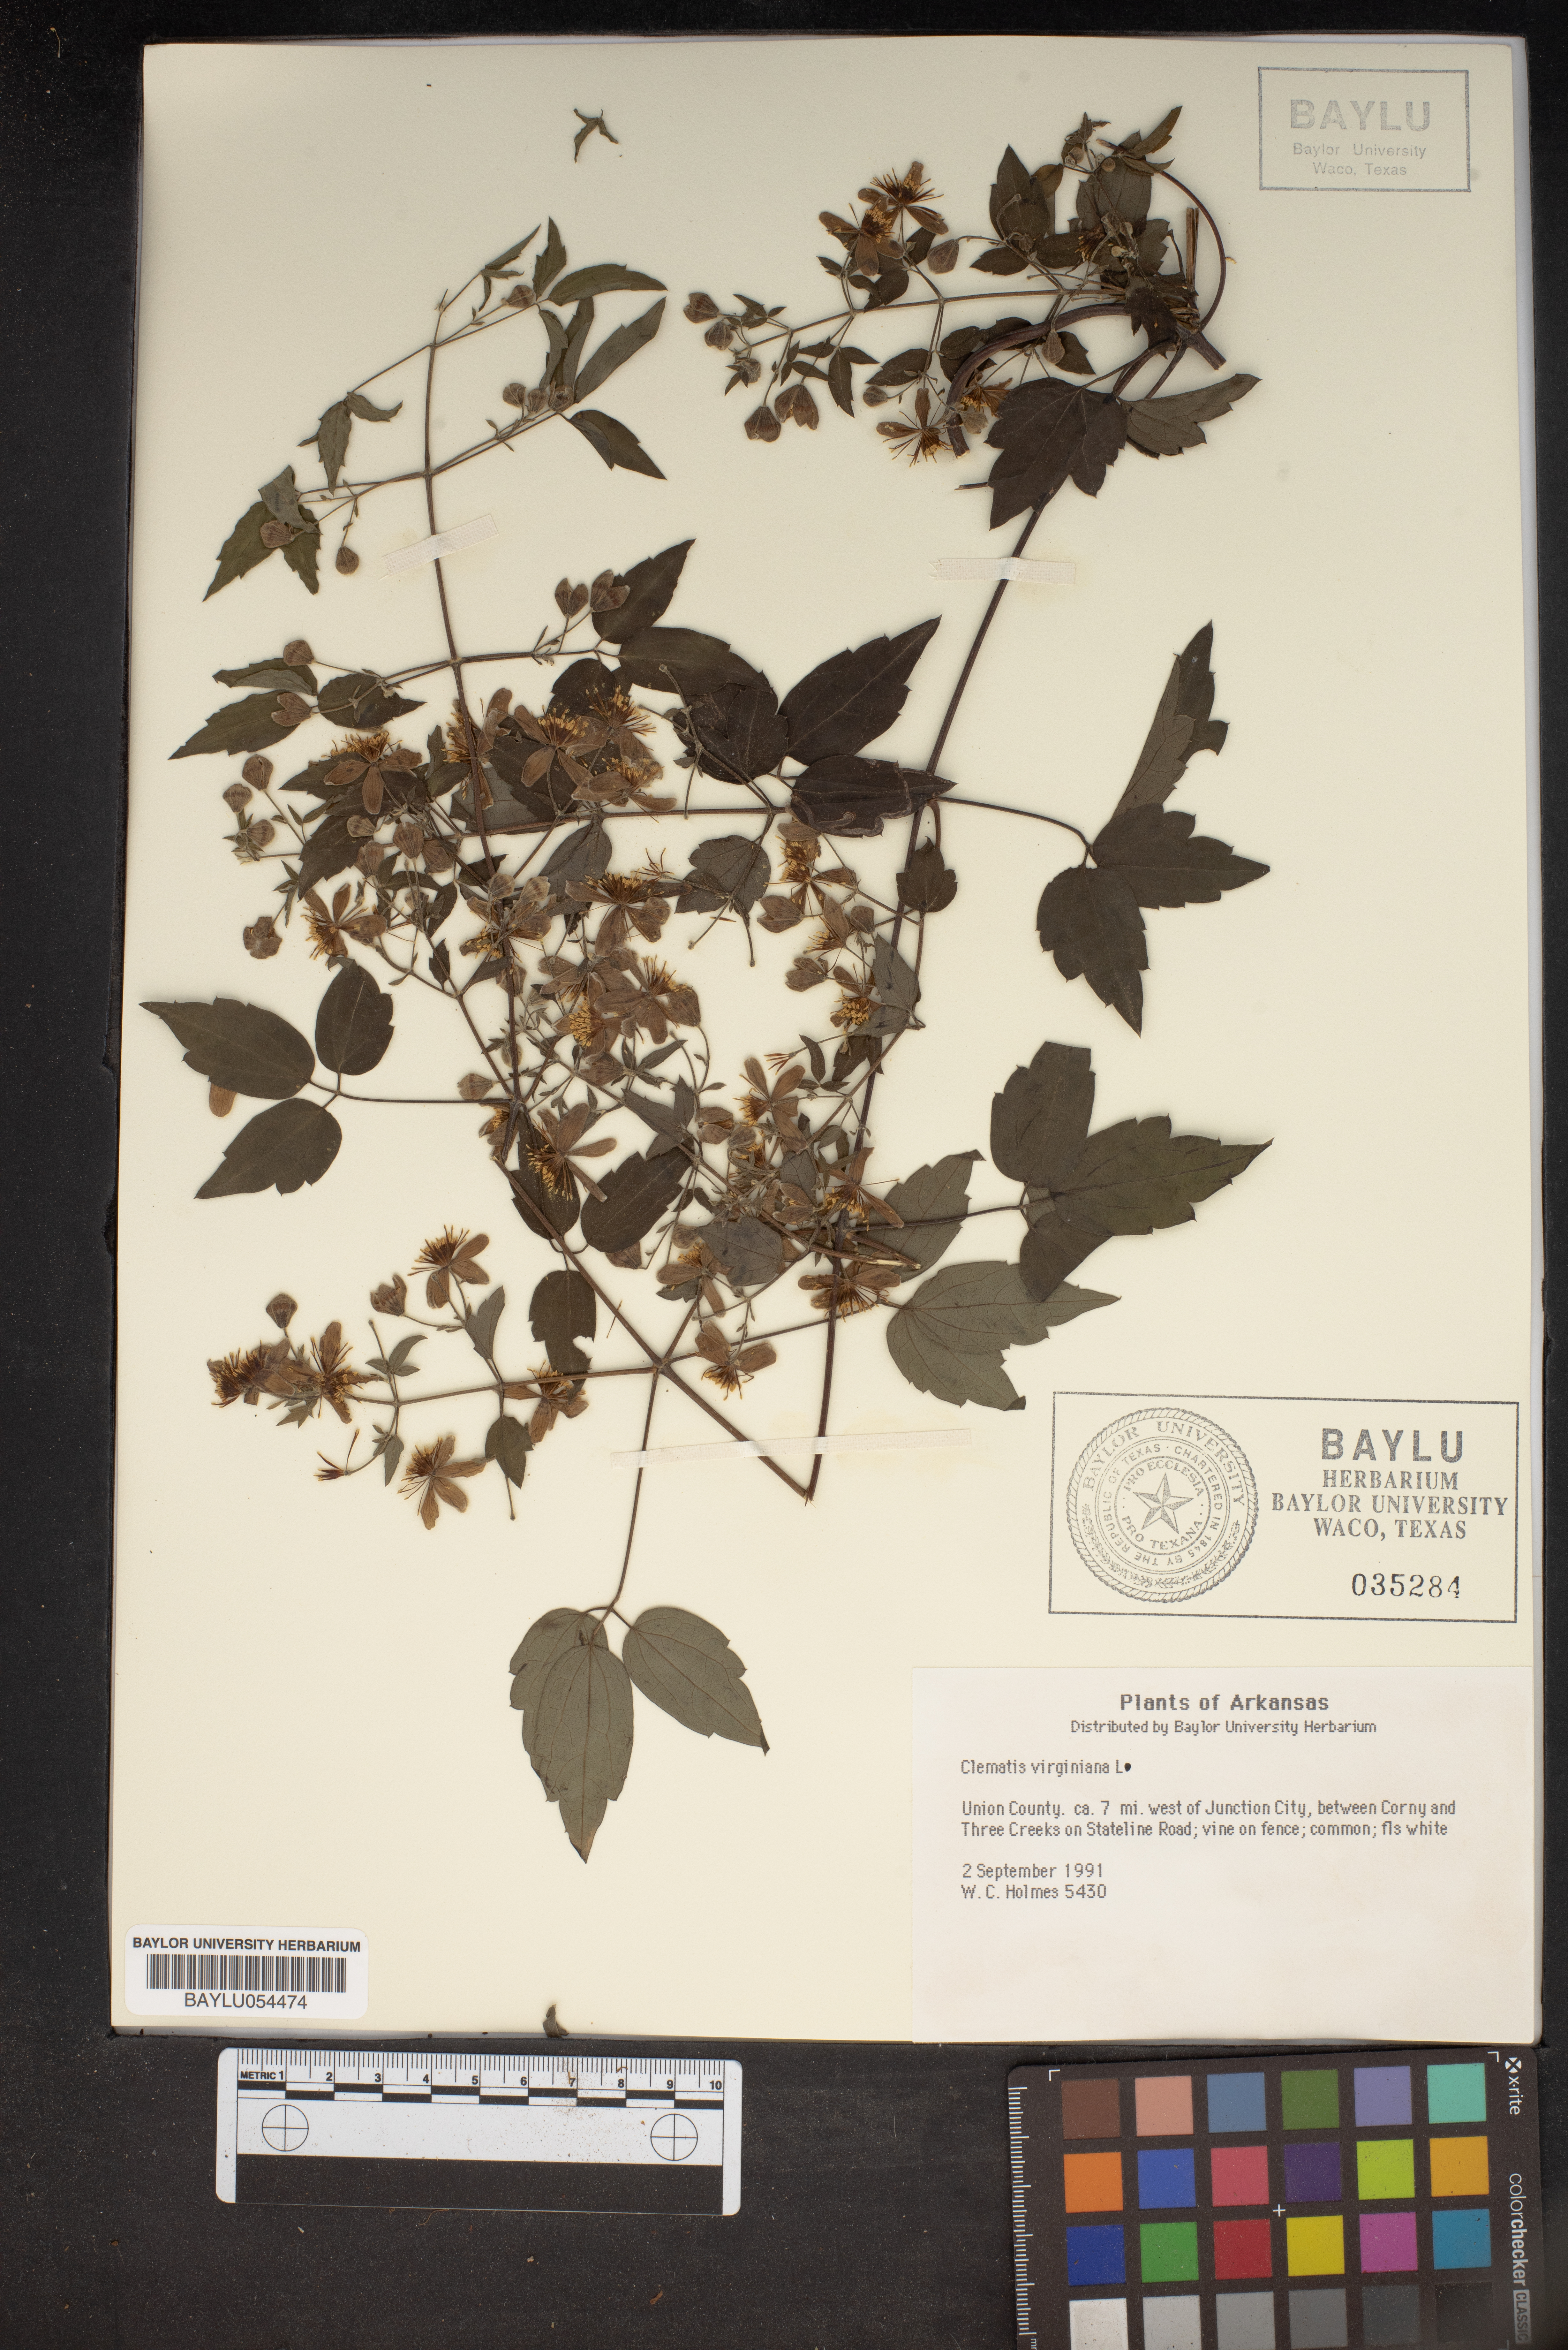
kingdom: Plantae
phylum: Tracheophyta
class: Magnoliopsida
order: Ranunculales
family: Ranunculaceae
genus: Clematis
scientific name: Clematis virginiana
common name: Virgin's-bower
